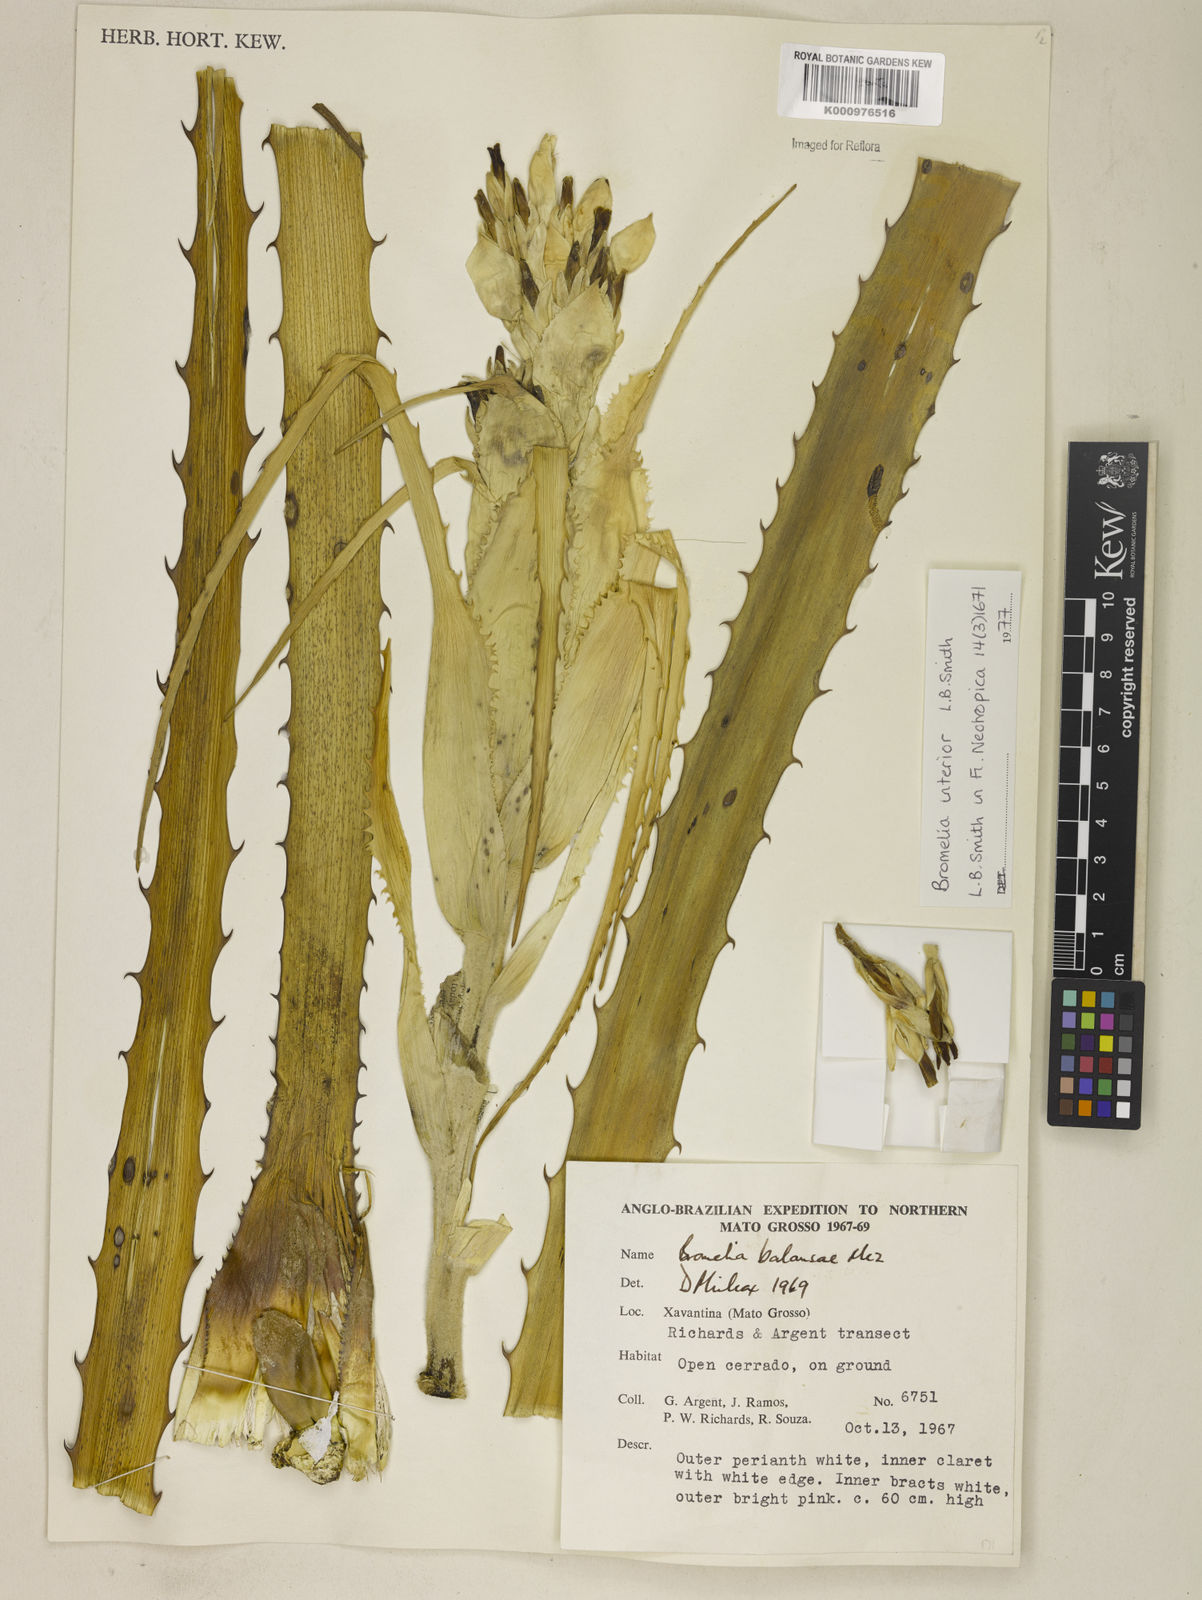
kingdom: Plantae
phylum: Tracheophyta
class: Liliopsida
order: Poales
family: Bromeliaceae
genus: Bromelia
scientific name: Bromelia interior
